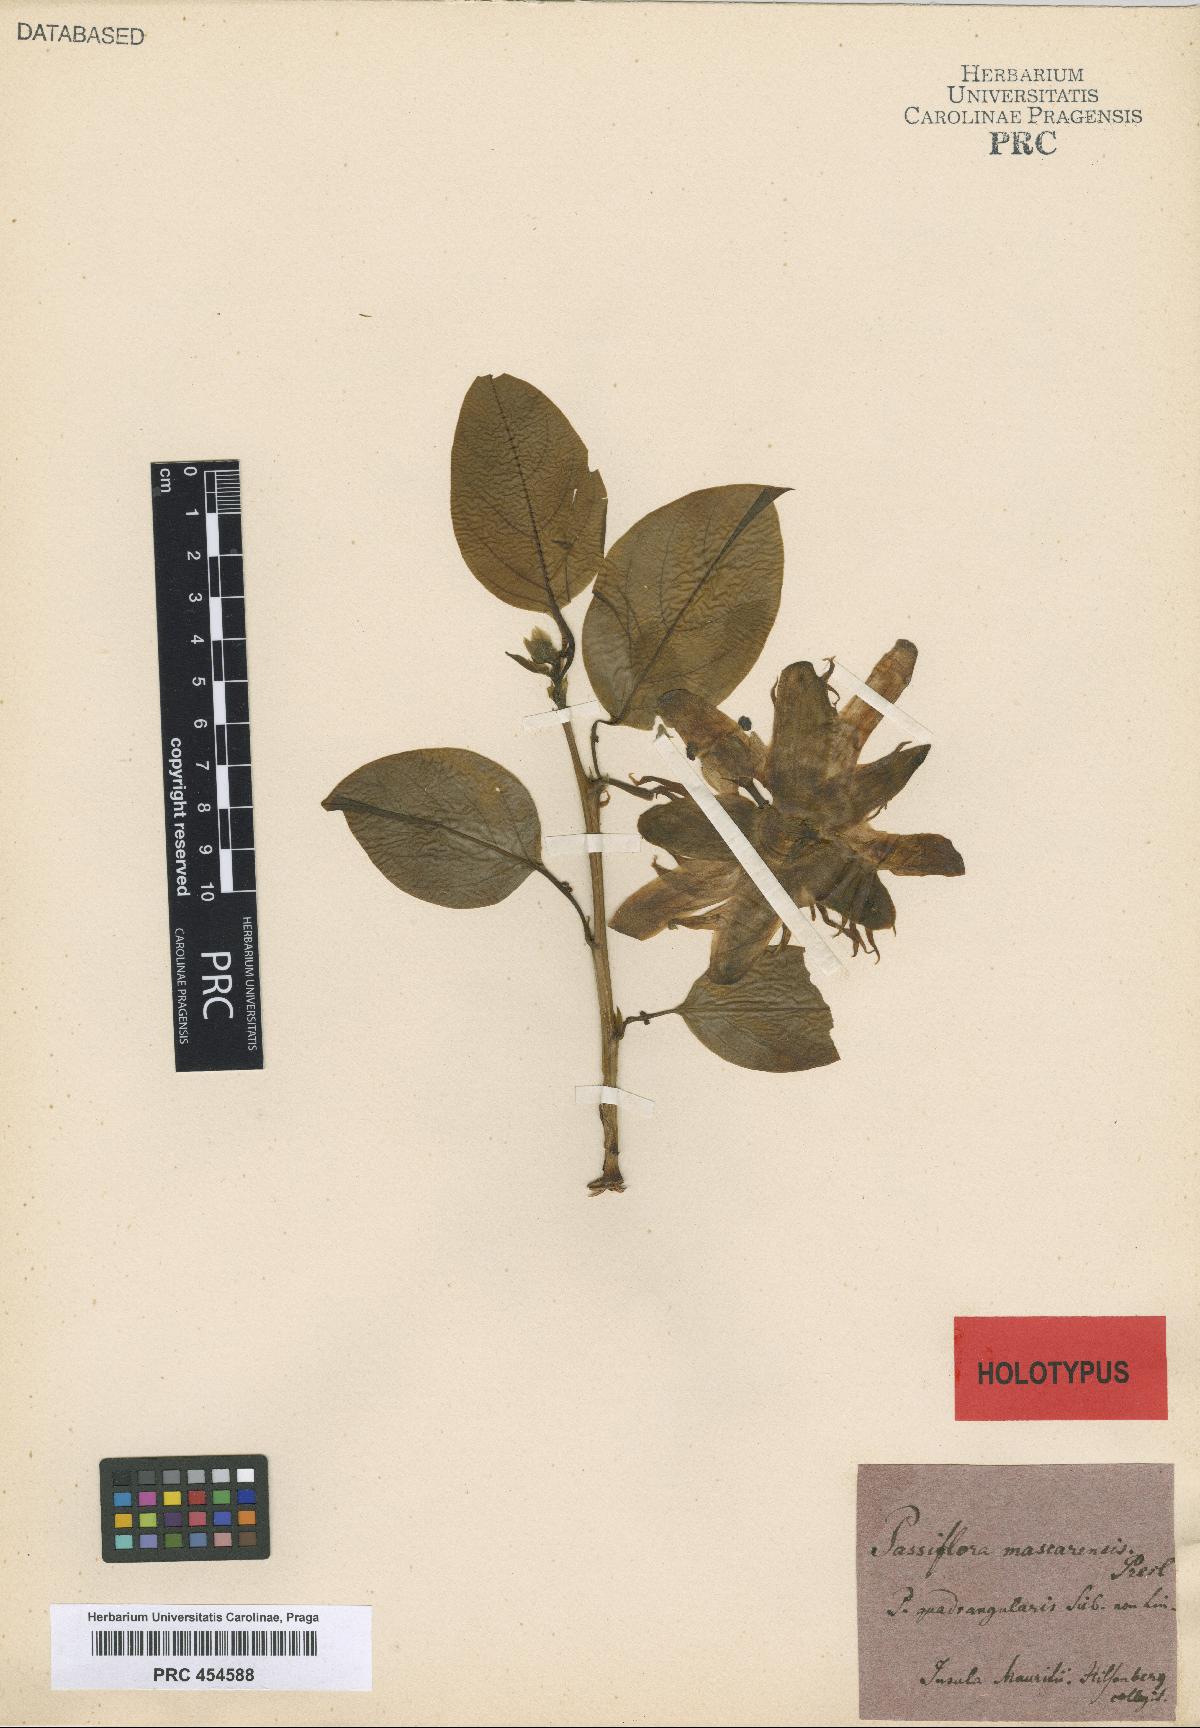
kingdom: Plantae
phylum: Tracheophyta
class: Magnoliopsida
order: Malpighiales
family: Passifloraceae
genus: Passiflora
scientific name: Passiflora alata
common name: Wing-stemmed passion flower
